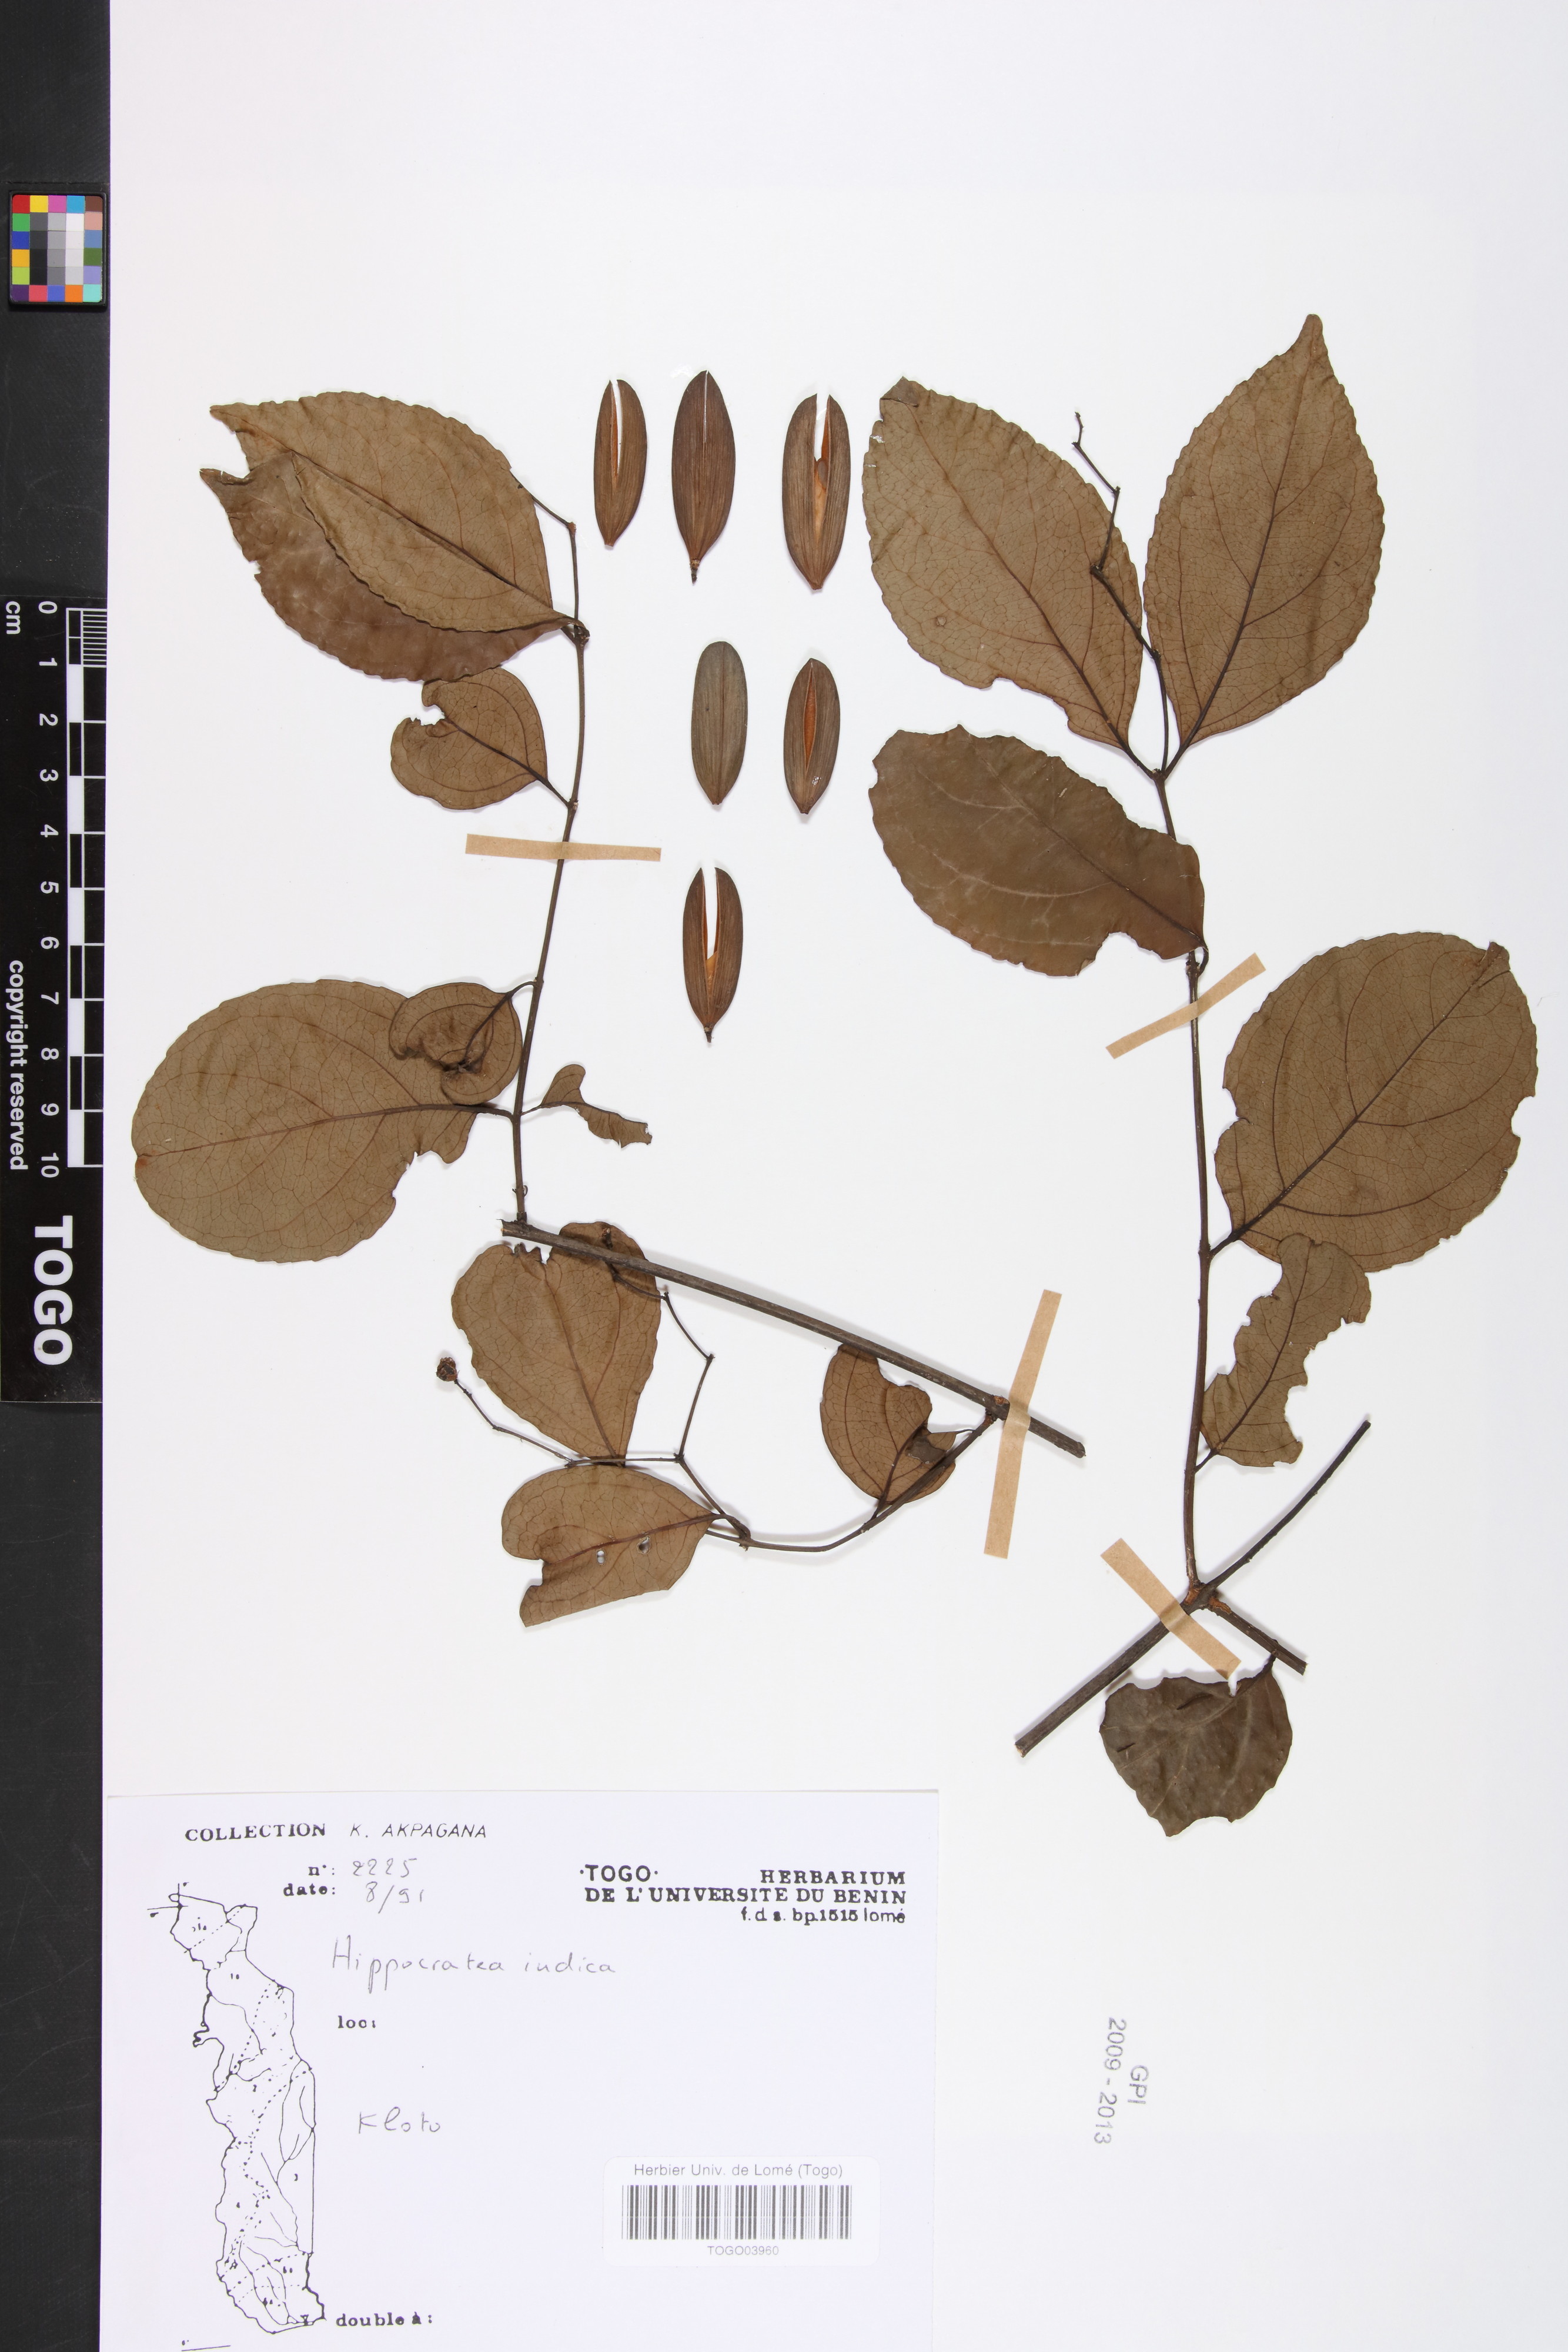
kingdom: Plantae
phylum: Tracheophyta
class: Magnoliopsida
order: Celastrales
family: Celastraceae
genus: Reissantia
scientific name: Reissantia indica
